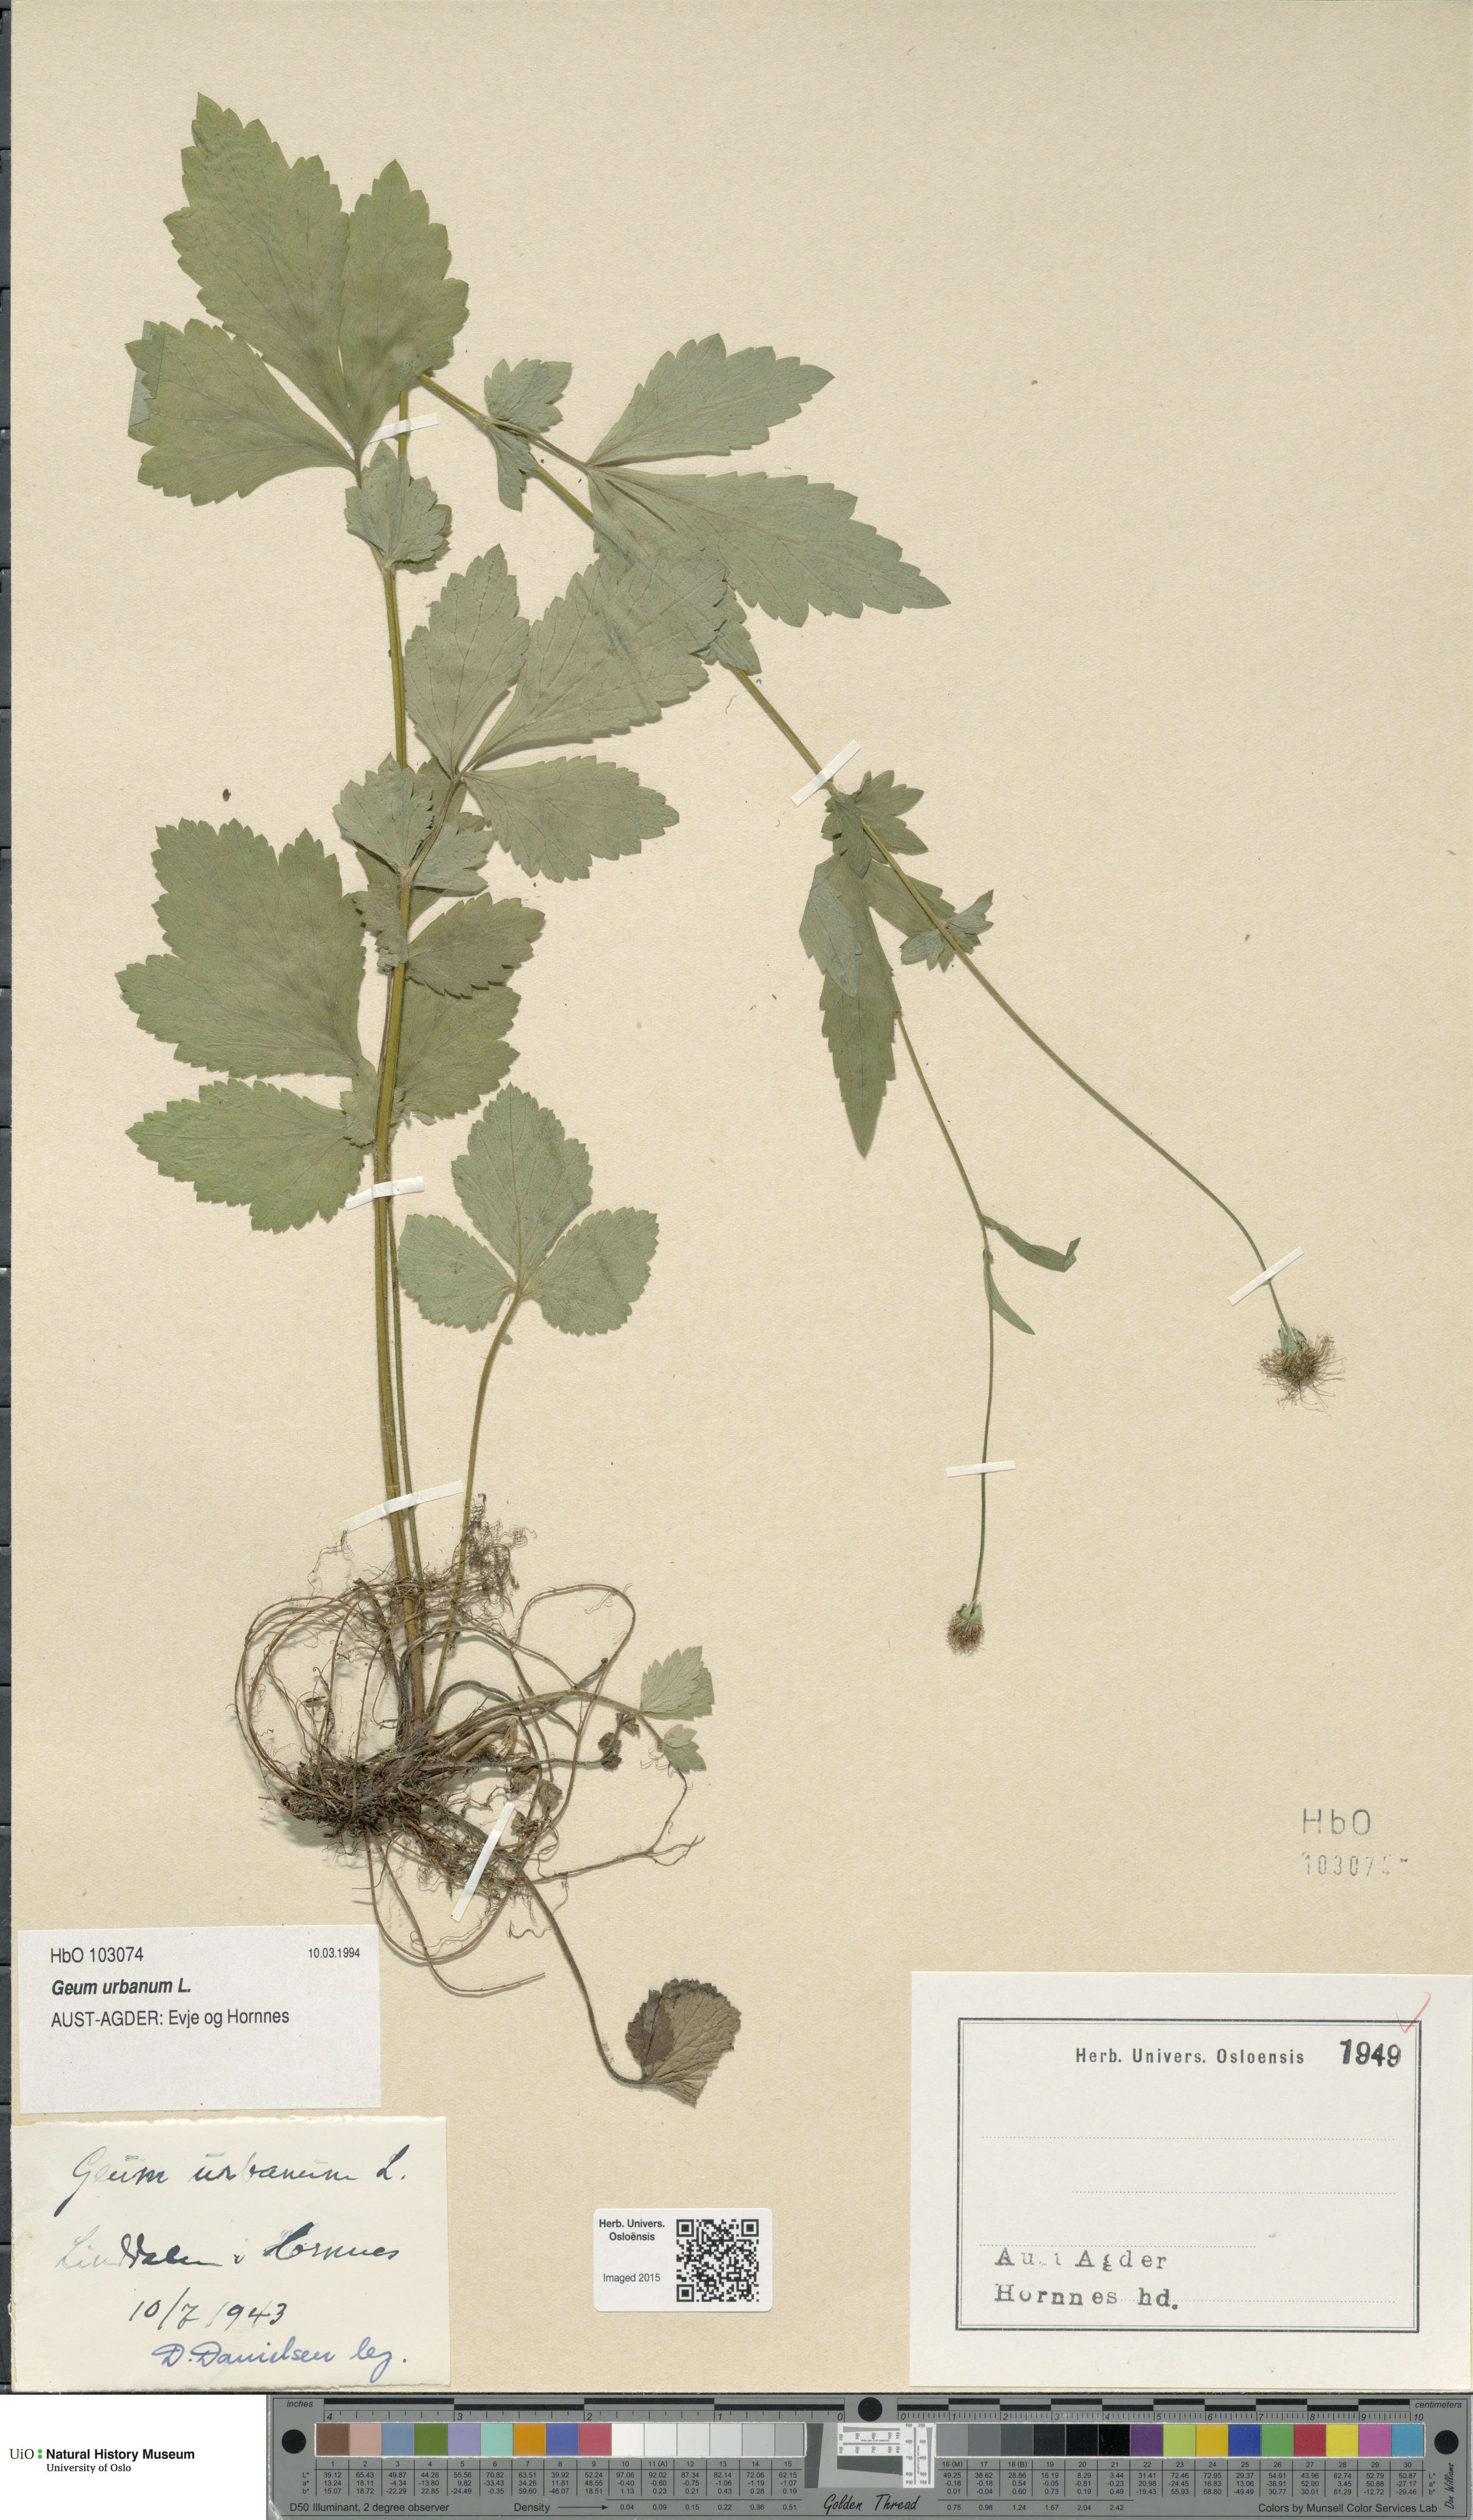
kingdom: Plantae
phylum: Tracheophyta
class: Magnoliopsida
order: Rosales
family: Rosaceae
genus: Geum
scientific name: Geum urbanum
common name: Wood avens
